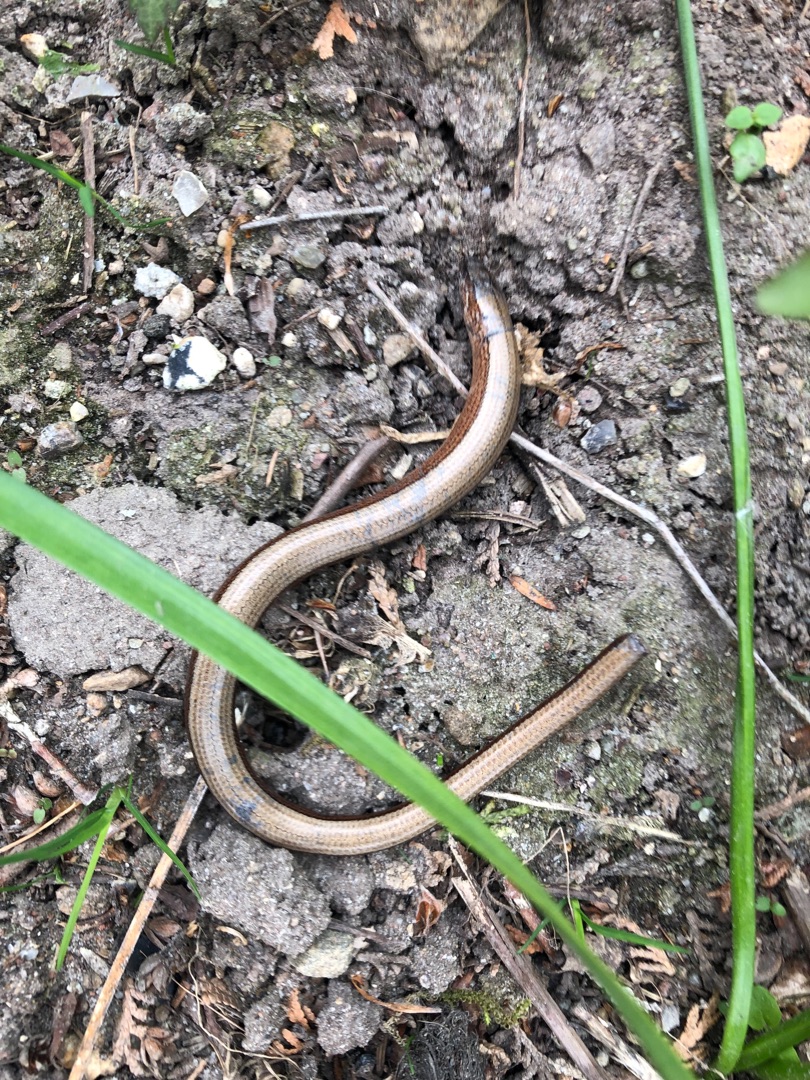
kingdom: Animalia
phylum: Chordata
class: Squamata
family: Anguidae
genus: Anguis
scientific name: Anguis fragilis
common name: Stålorm
